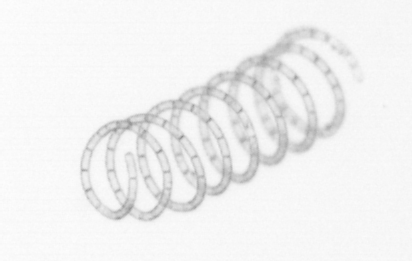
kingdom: Chromista
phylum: Ochrophyta
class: Bacillariophyceae
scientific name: Bacillariophyceae
